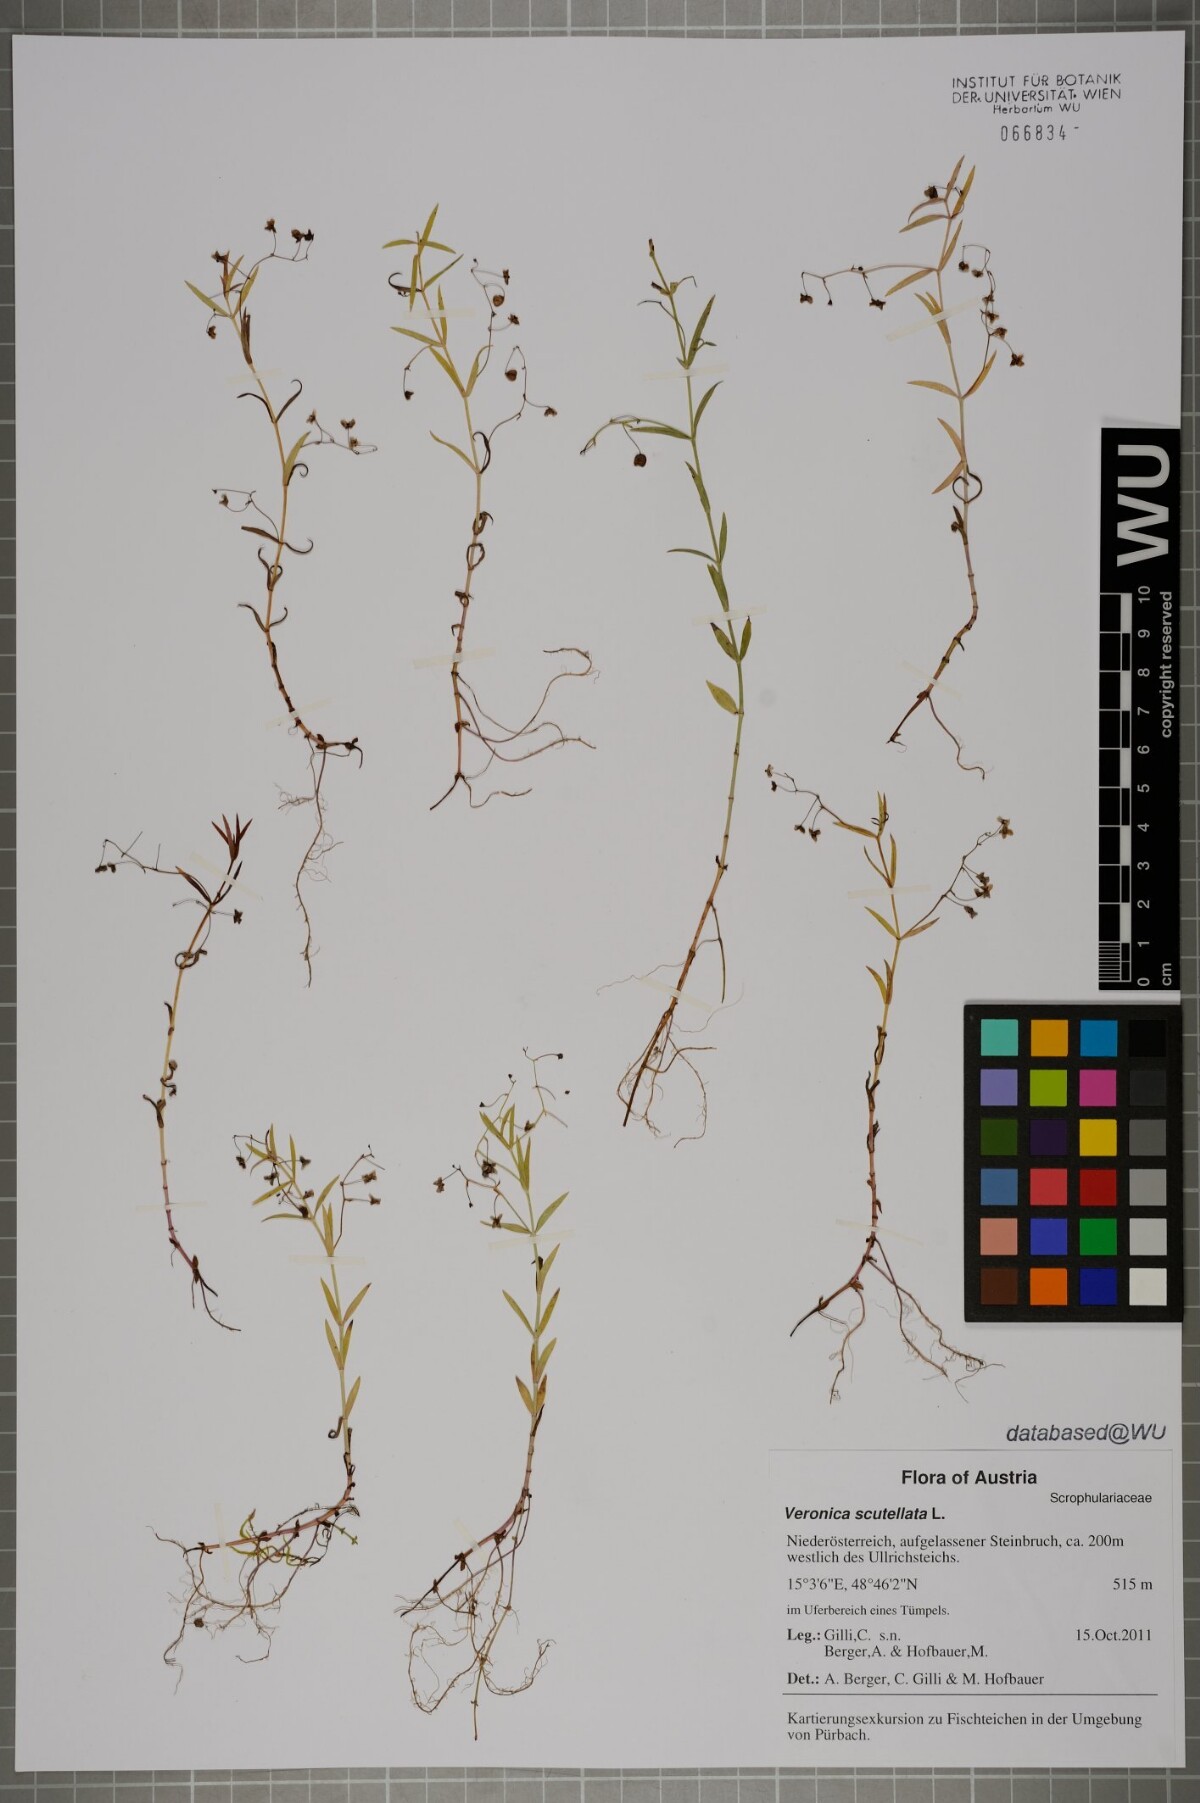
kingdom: Plantae
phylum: Tracheophyta
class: Magnoliopsida
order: Lamiales
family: Plantaginaceae
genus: Veronica
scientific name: Veronica scutellata
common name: Marsh speedwell
